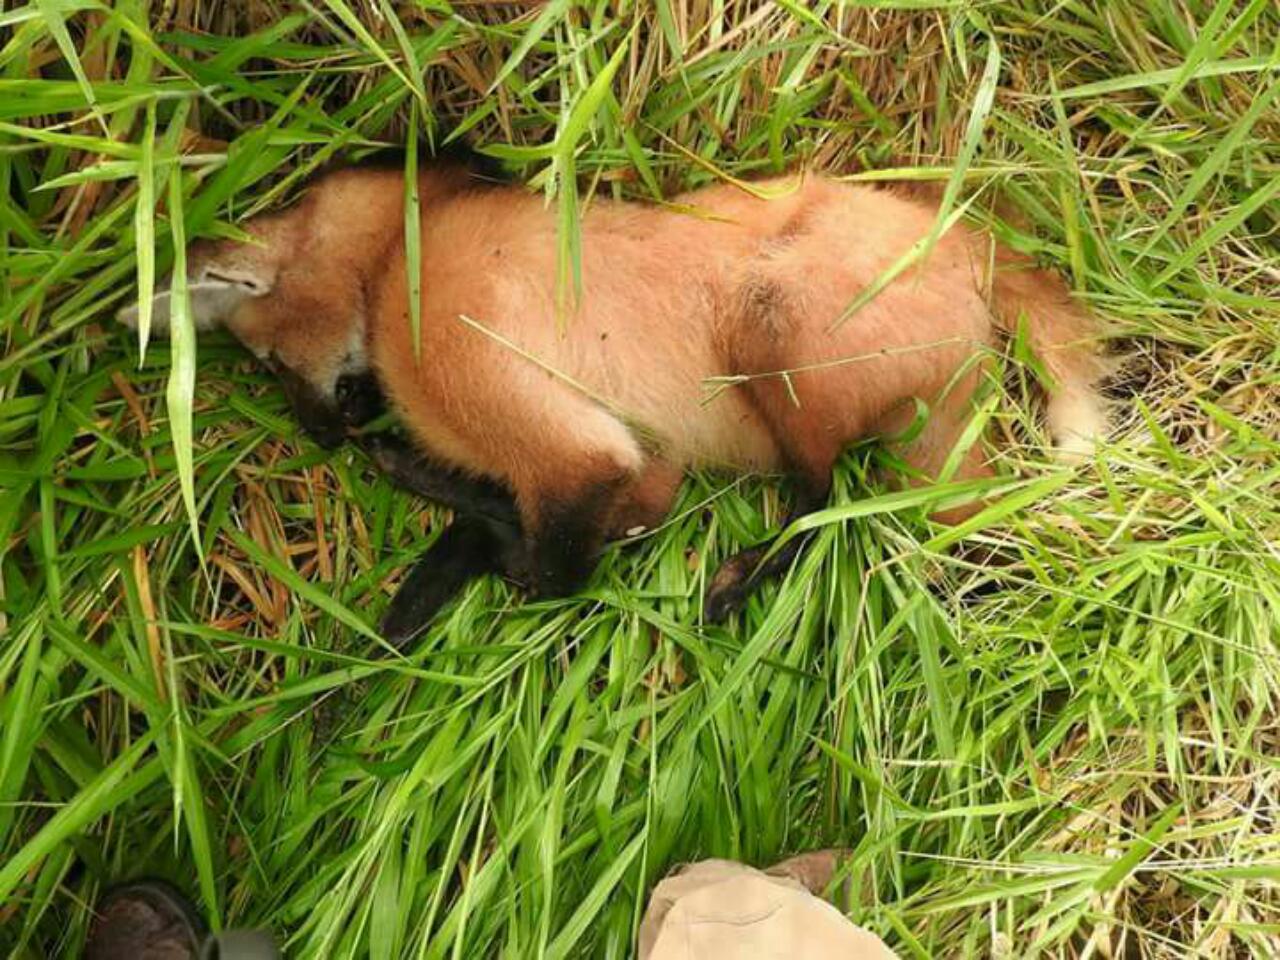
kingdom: Animalia
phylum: Chordata
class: Mammalia
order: Carnivora
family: Canidae
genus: Chrysocyon
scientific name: Chrysocyon brachyurus
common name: Maned wolf
